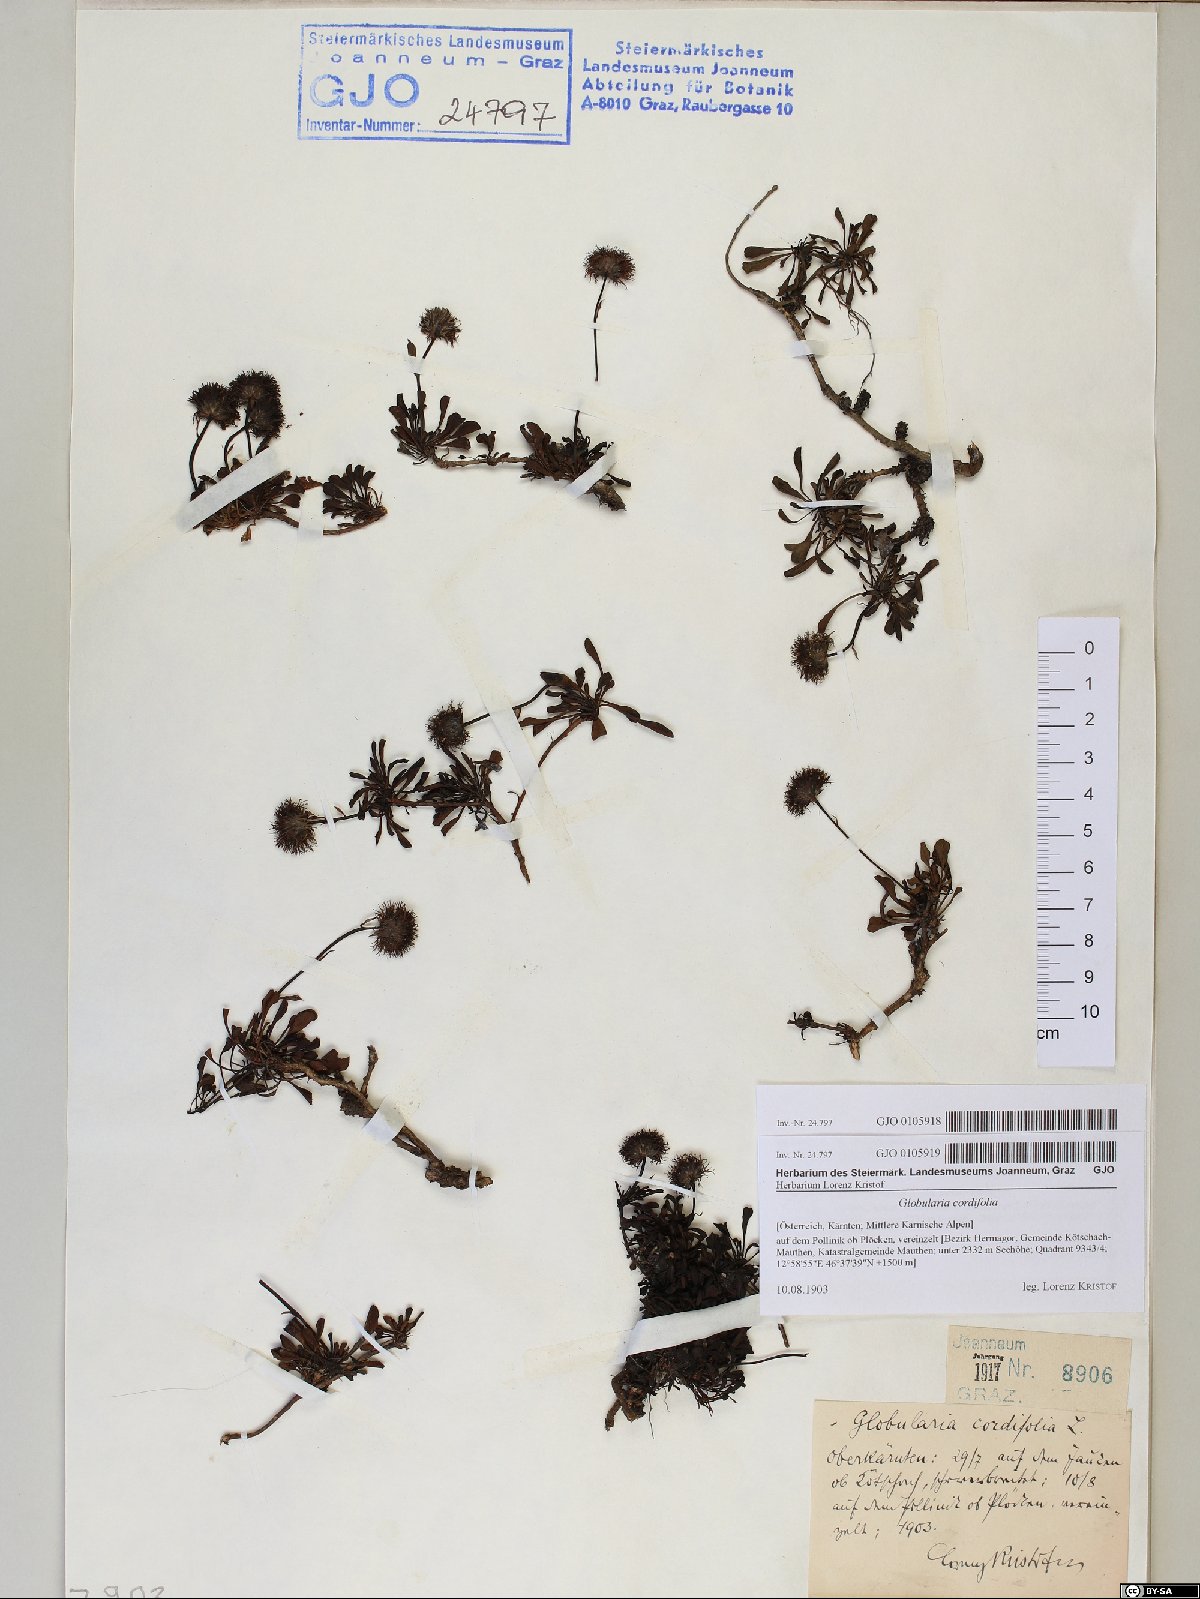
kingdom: Plantae
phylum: Tracheophyta
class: Magnoliopsida
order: Lamiales
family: Plantaginaceae
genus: Globularia
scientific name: Globularia cordifolia
